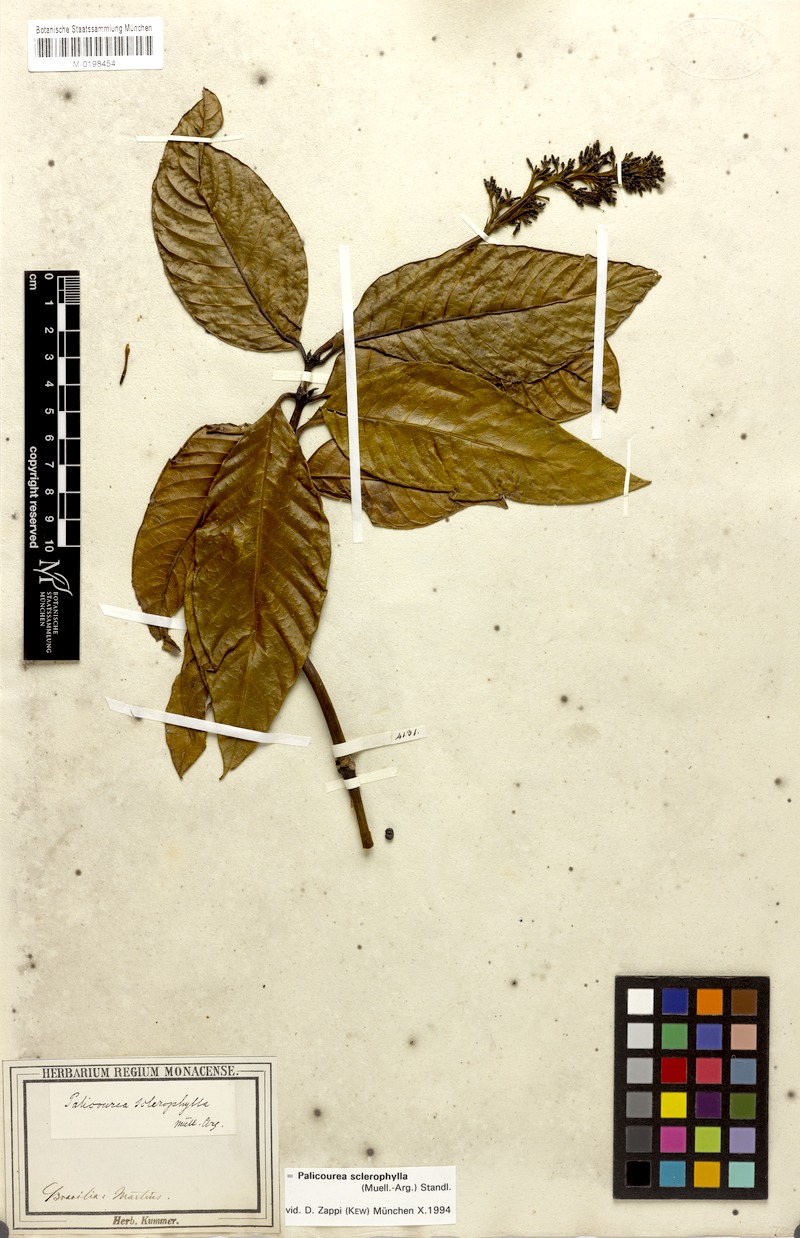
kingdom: Plantae
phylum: Tracheophyta
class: Magnoliopsida
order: Gentianales
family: Rubiaceae
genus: Palicourea
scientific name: Palicourea sclerophylla
